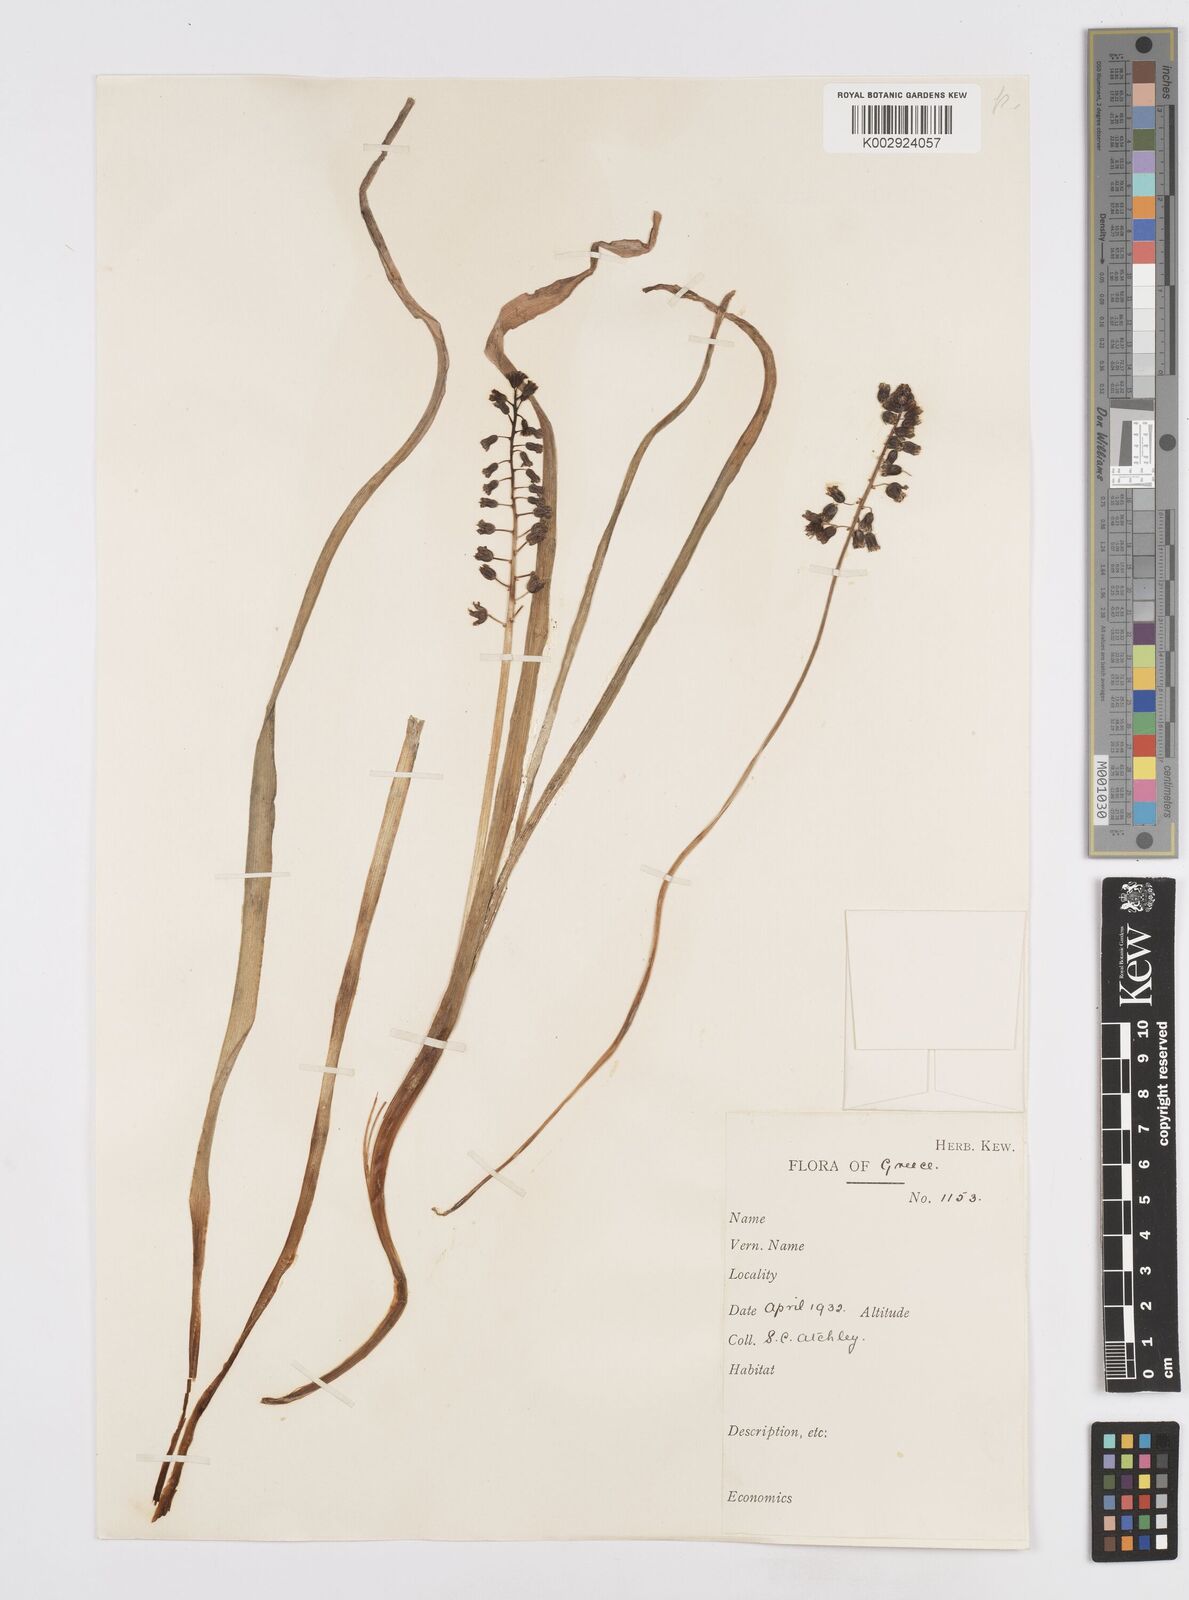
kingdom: Plantae
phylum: Tracheophyta
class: Liliopsida
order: Asparagales
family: Asparagaceae
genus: Bellevalia
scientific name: Bellevalia dubia
